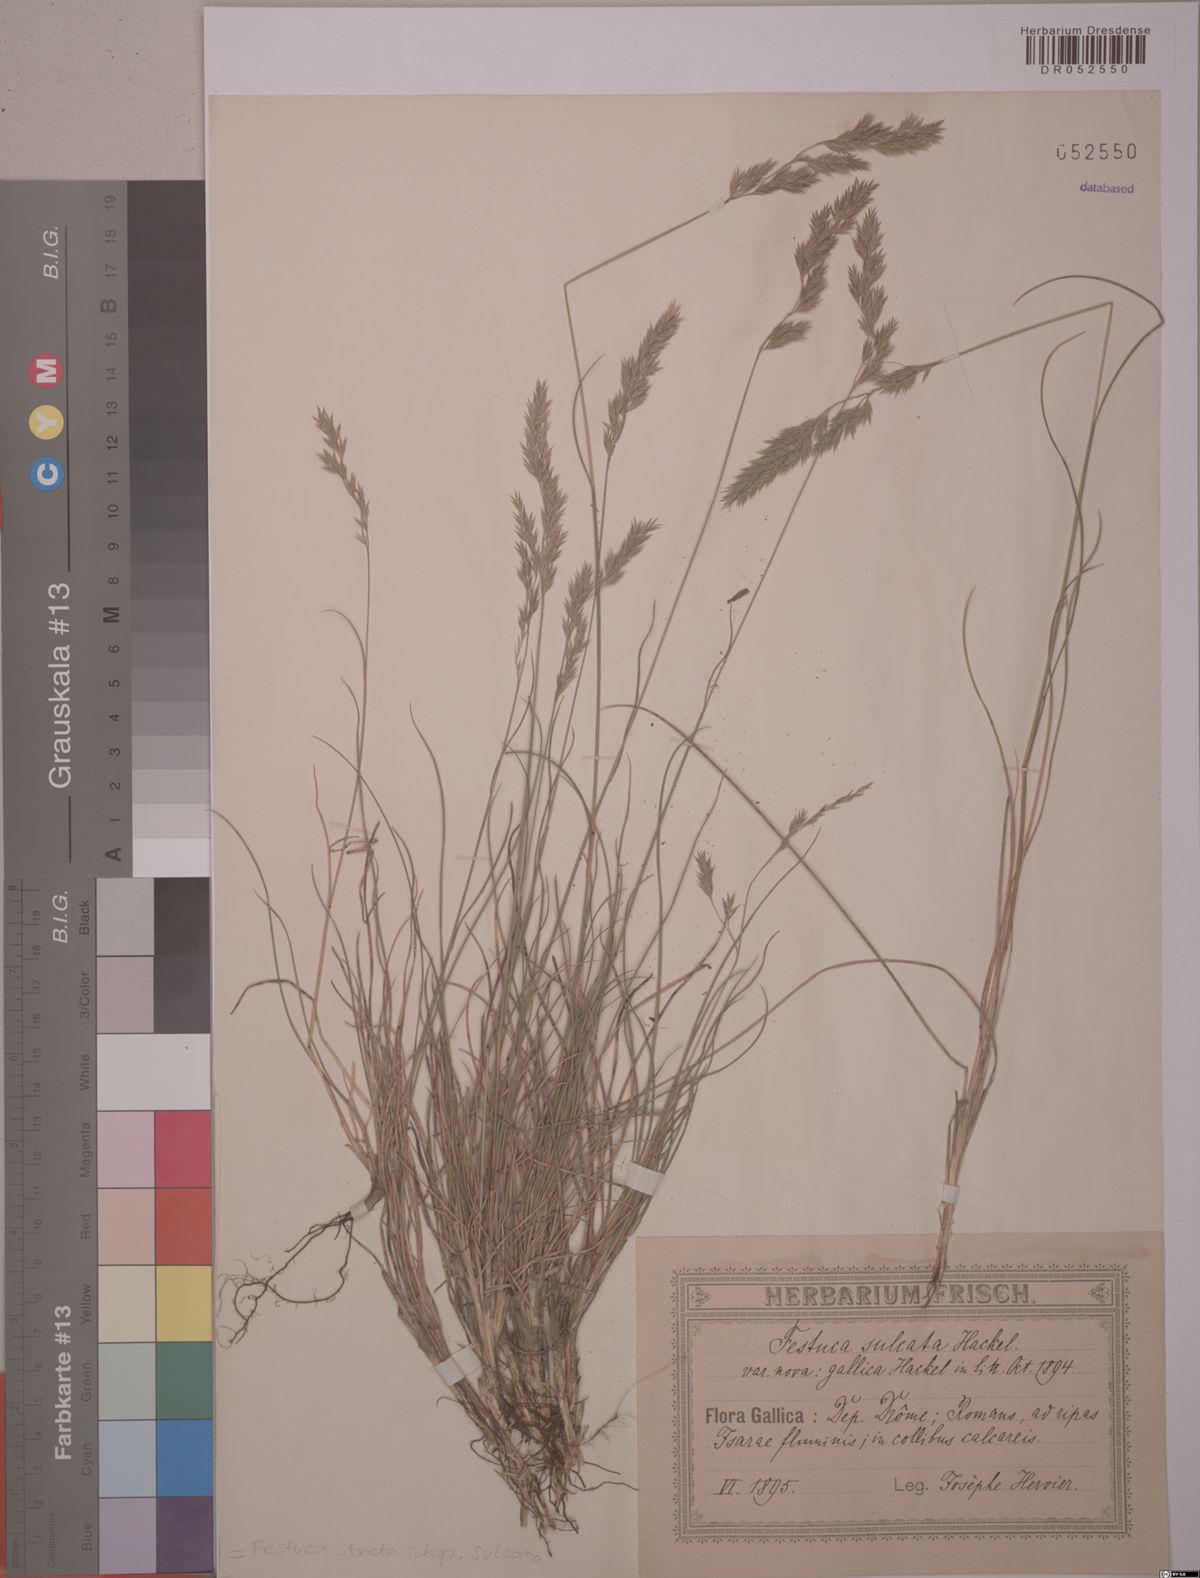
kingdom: Plantae
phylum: Tracheophyta
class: Liliopsida
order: Poales
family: Poaceae
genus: Festuca
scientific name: Festuca rupicola
